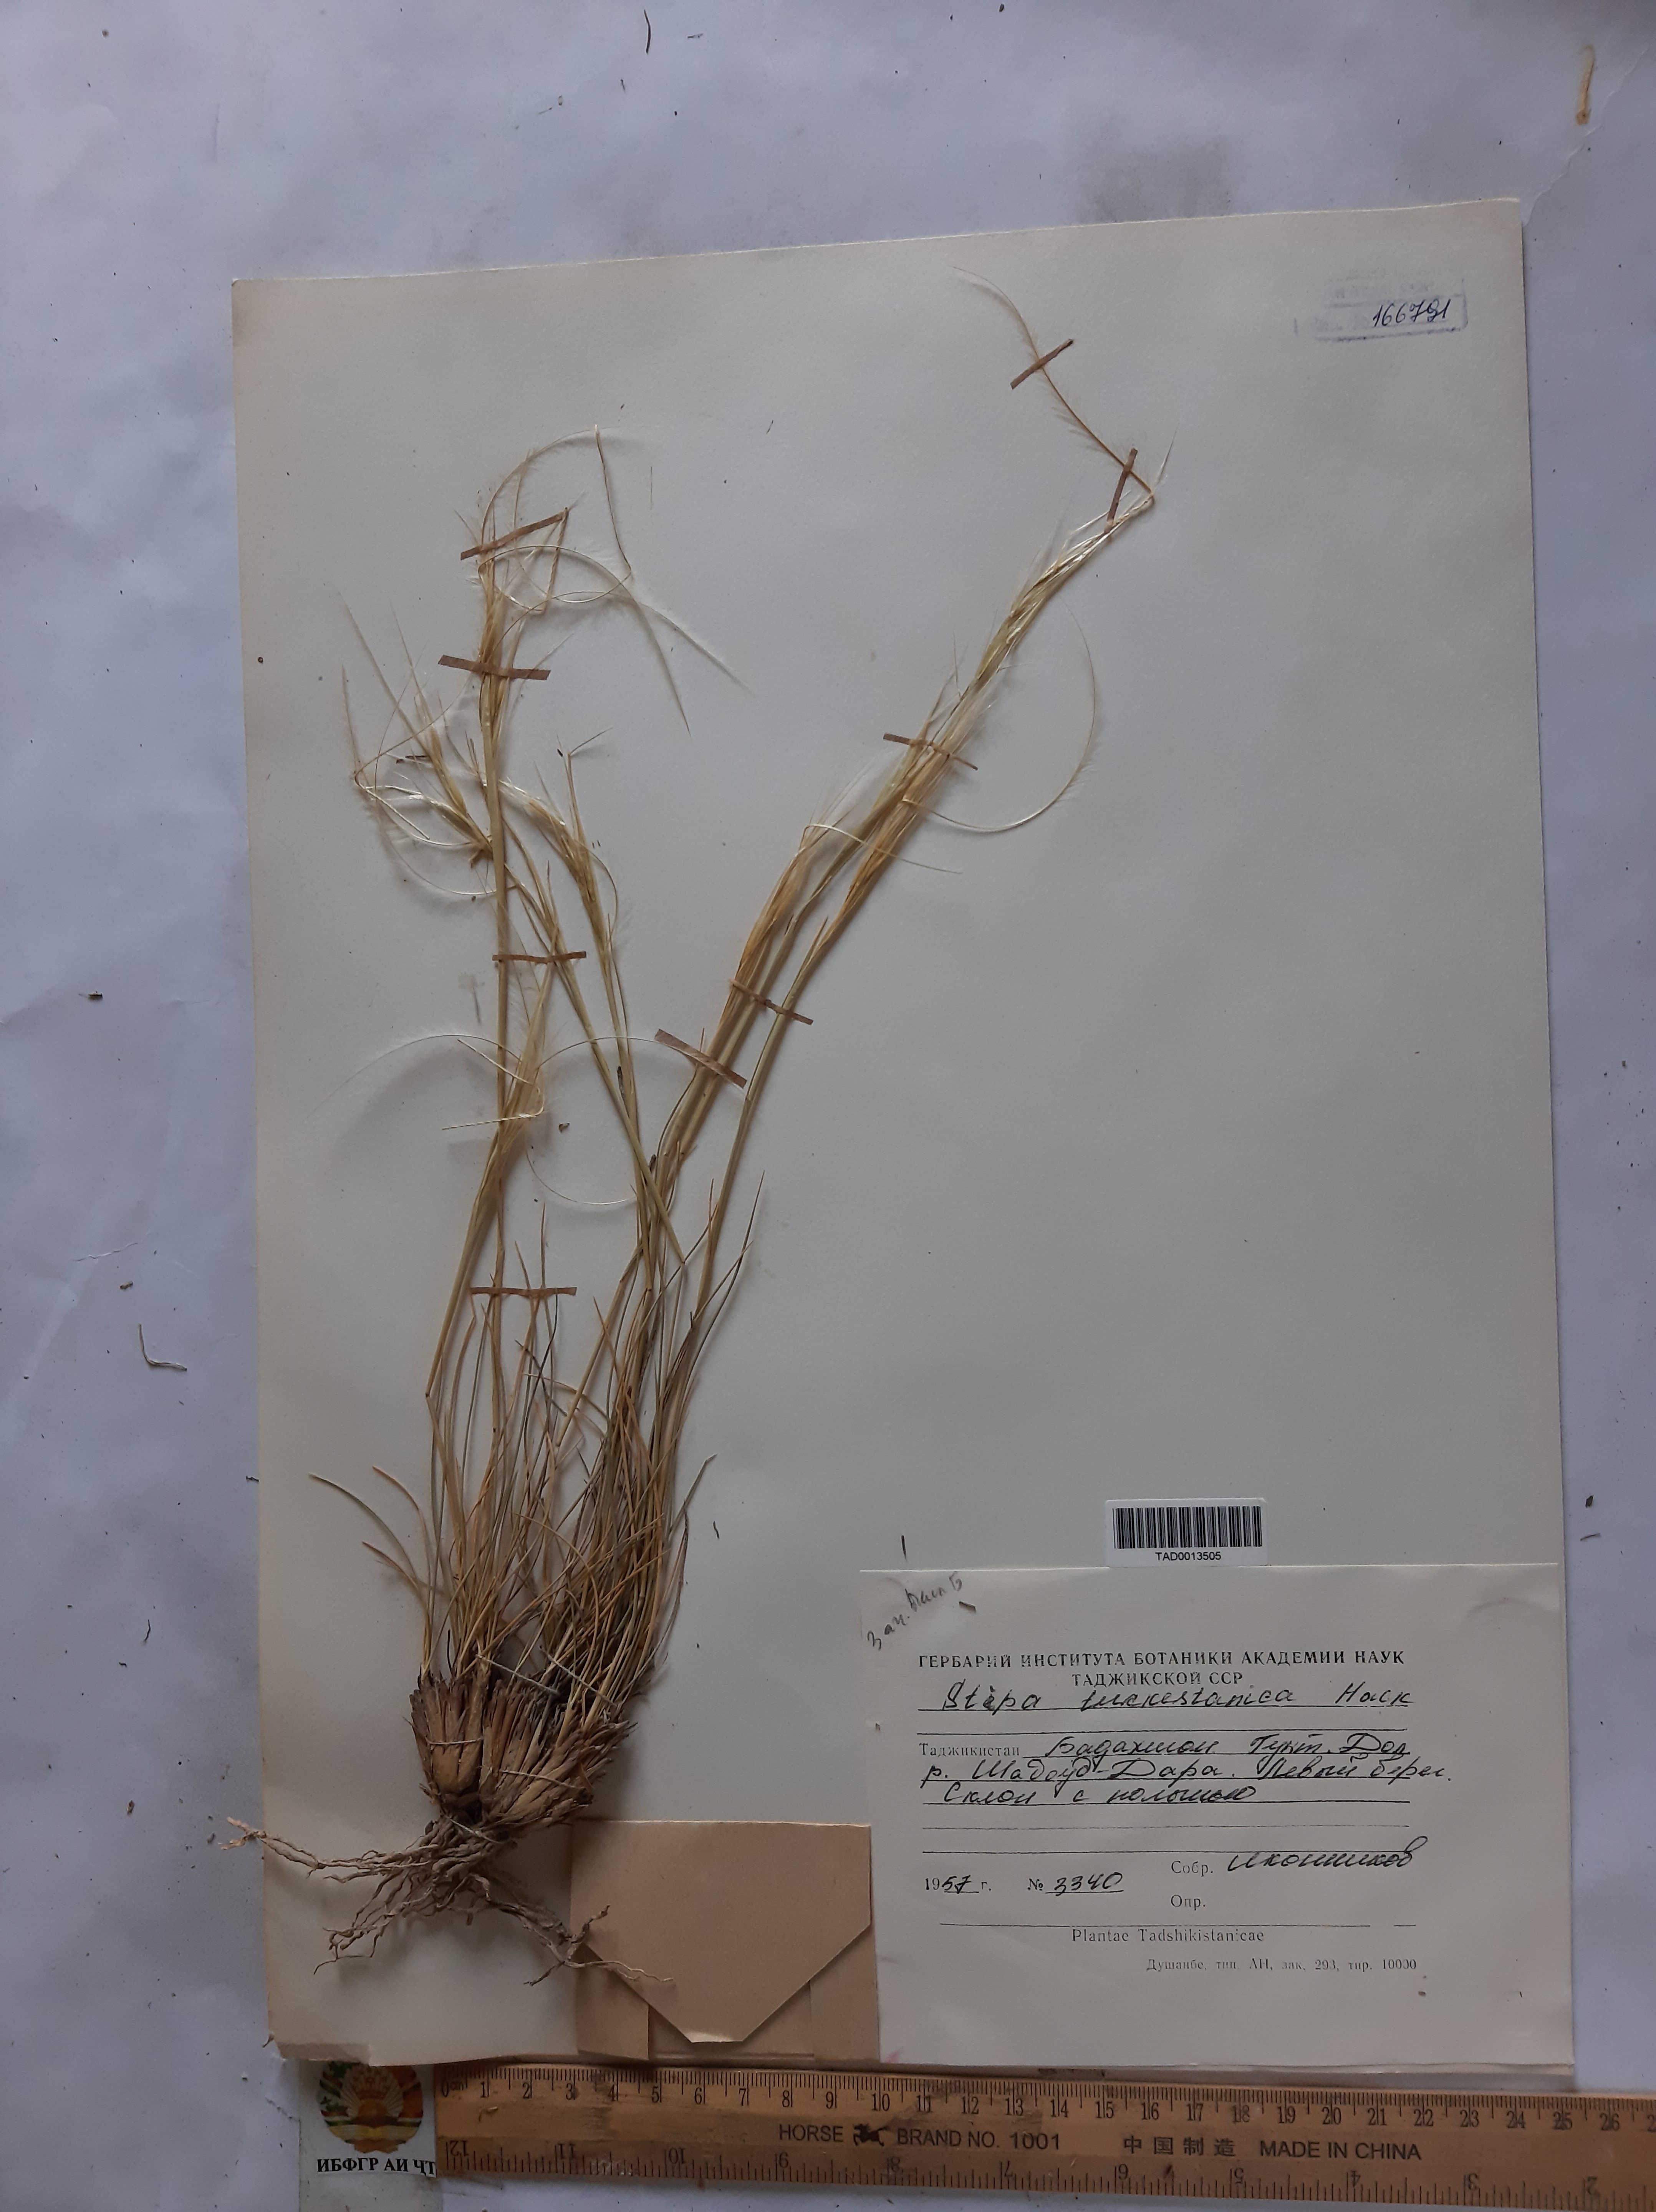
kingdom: Plantae
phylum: Tracheophyta
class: Liliopsida
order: Poales
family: Poaceae
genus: Stipa
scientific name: Stipa turkestanica
